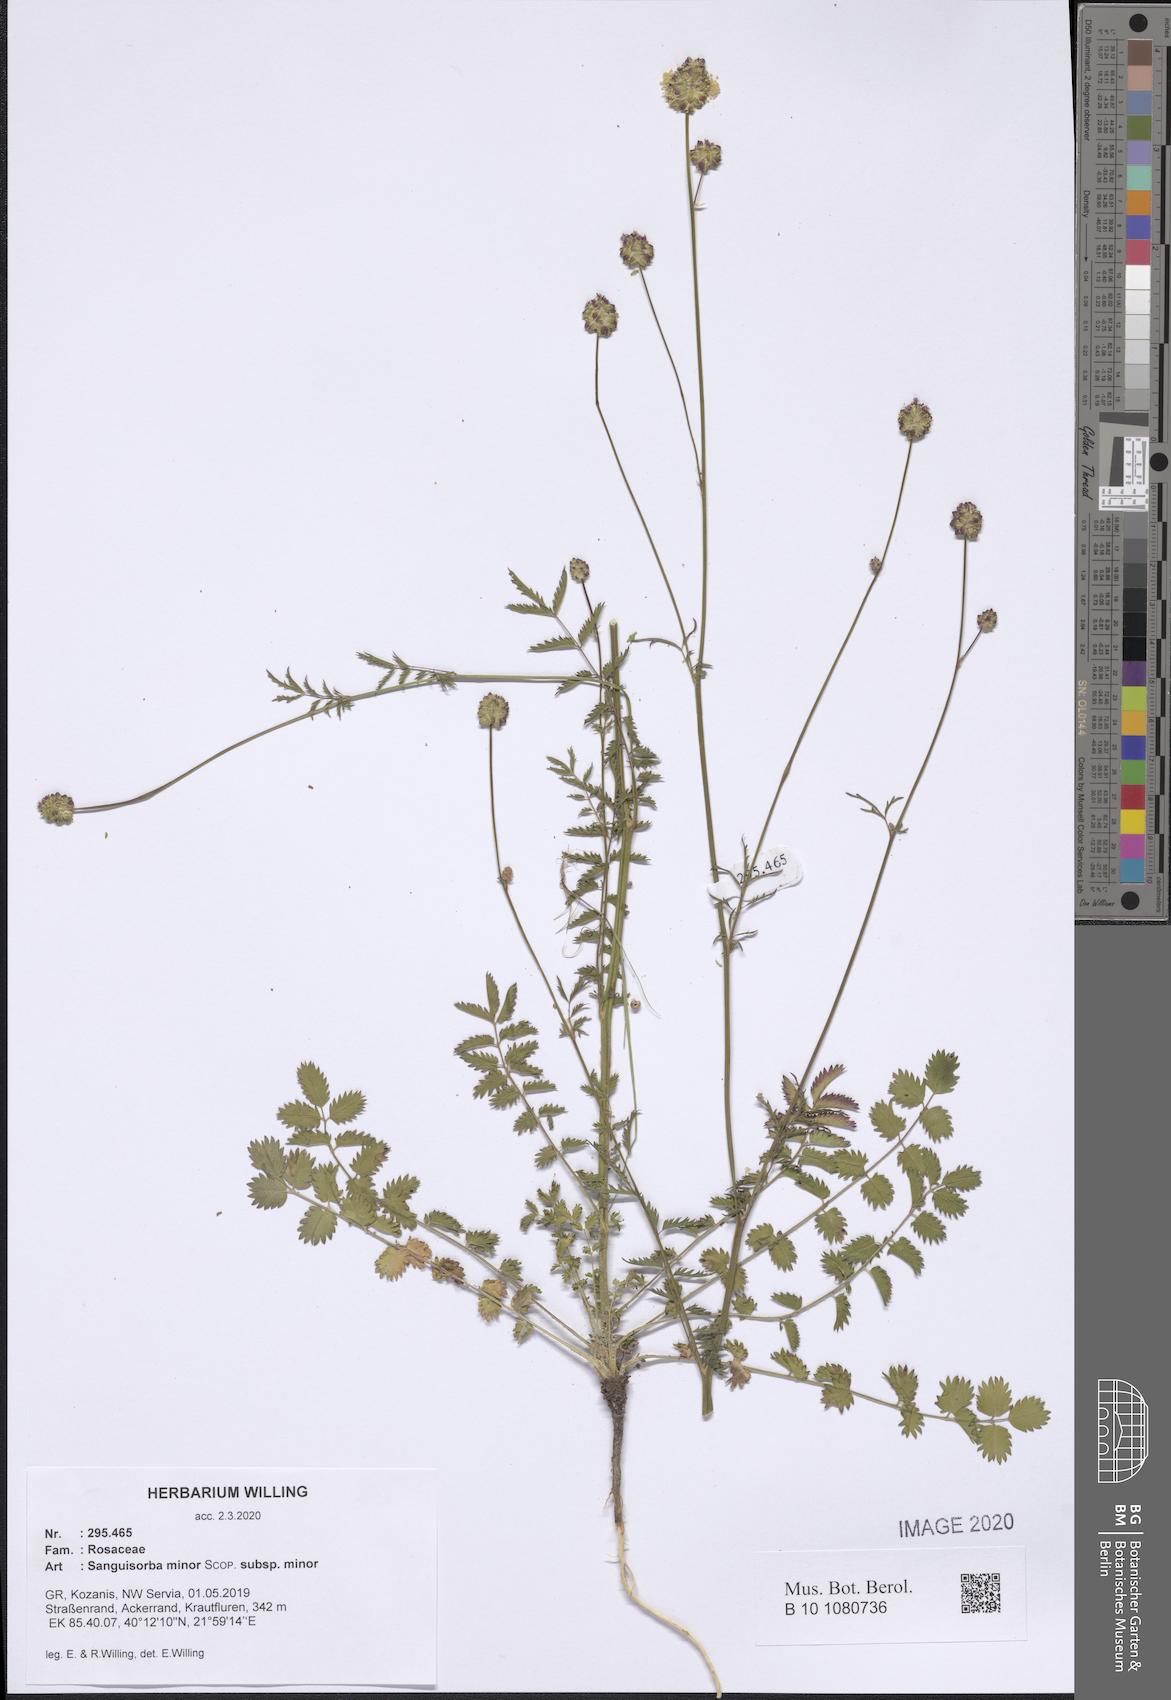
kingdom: Plantae
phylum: Tracheophyta
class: Magnoliopsida
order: Rosales
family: Rosaceae
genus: Poterium
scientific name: Poterium sanguisorba
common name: Salad burnet
